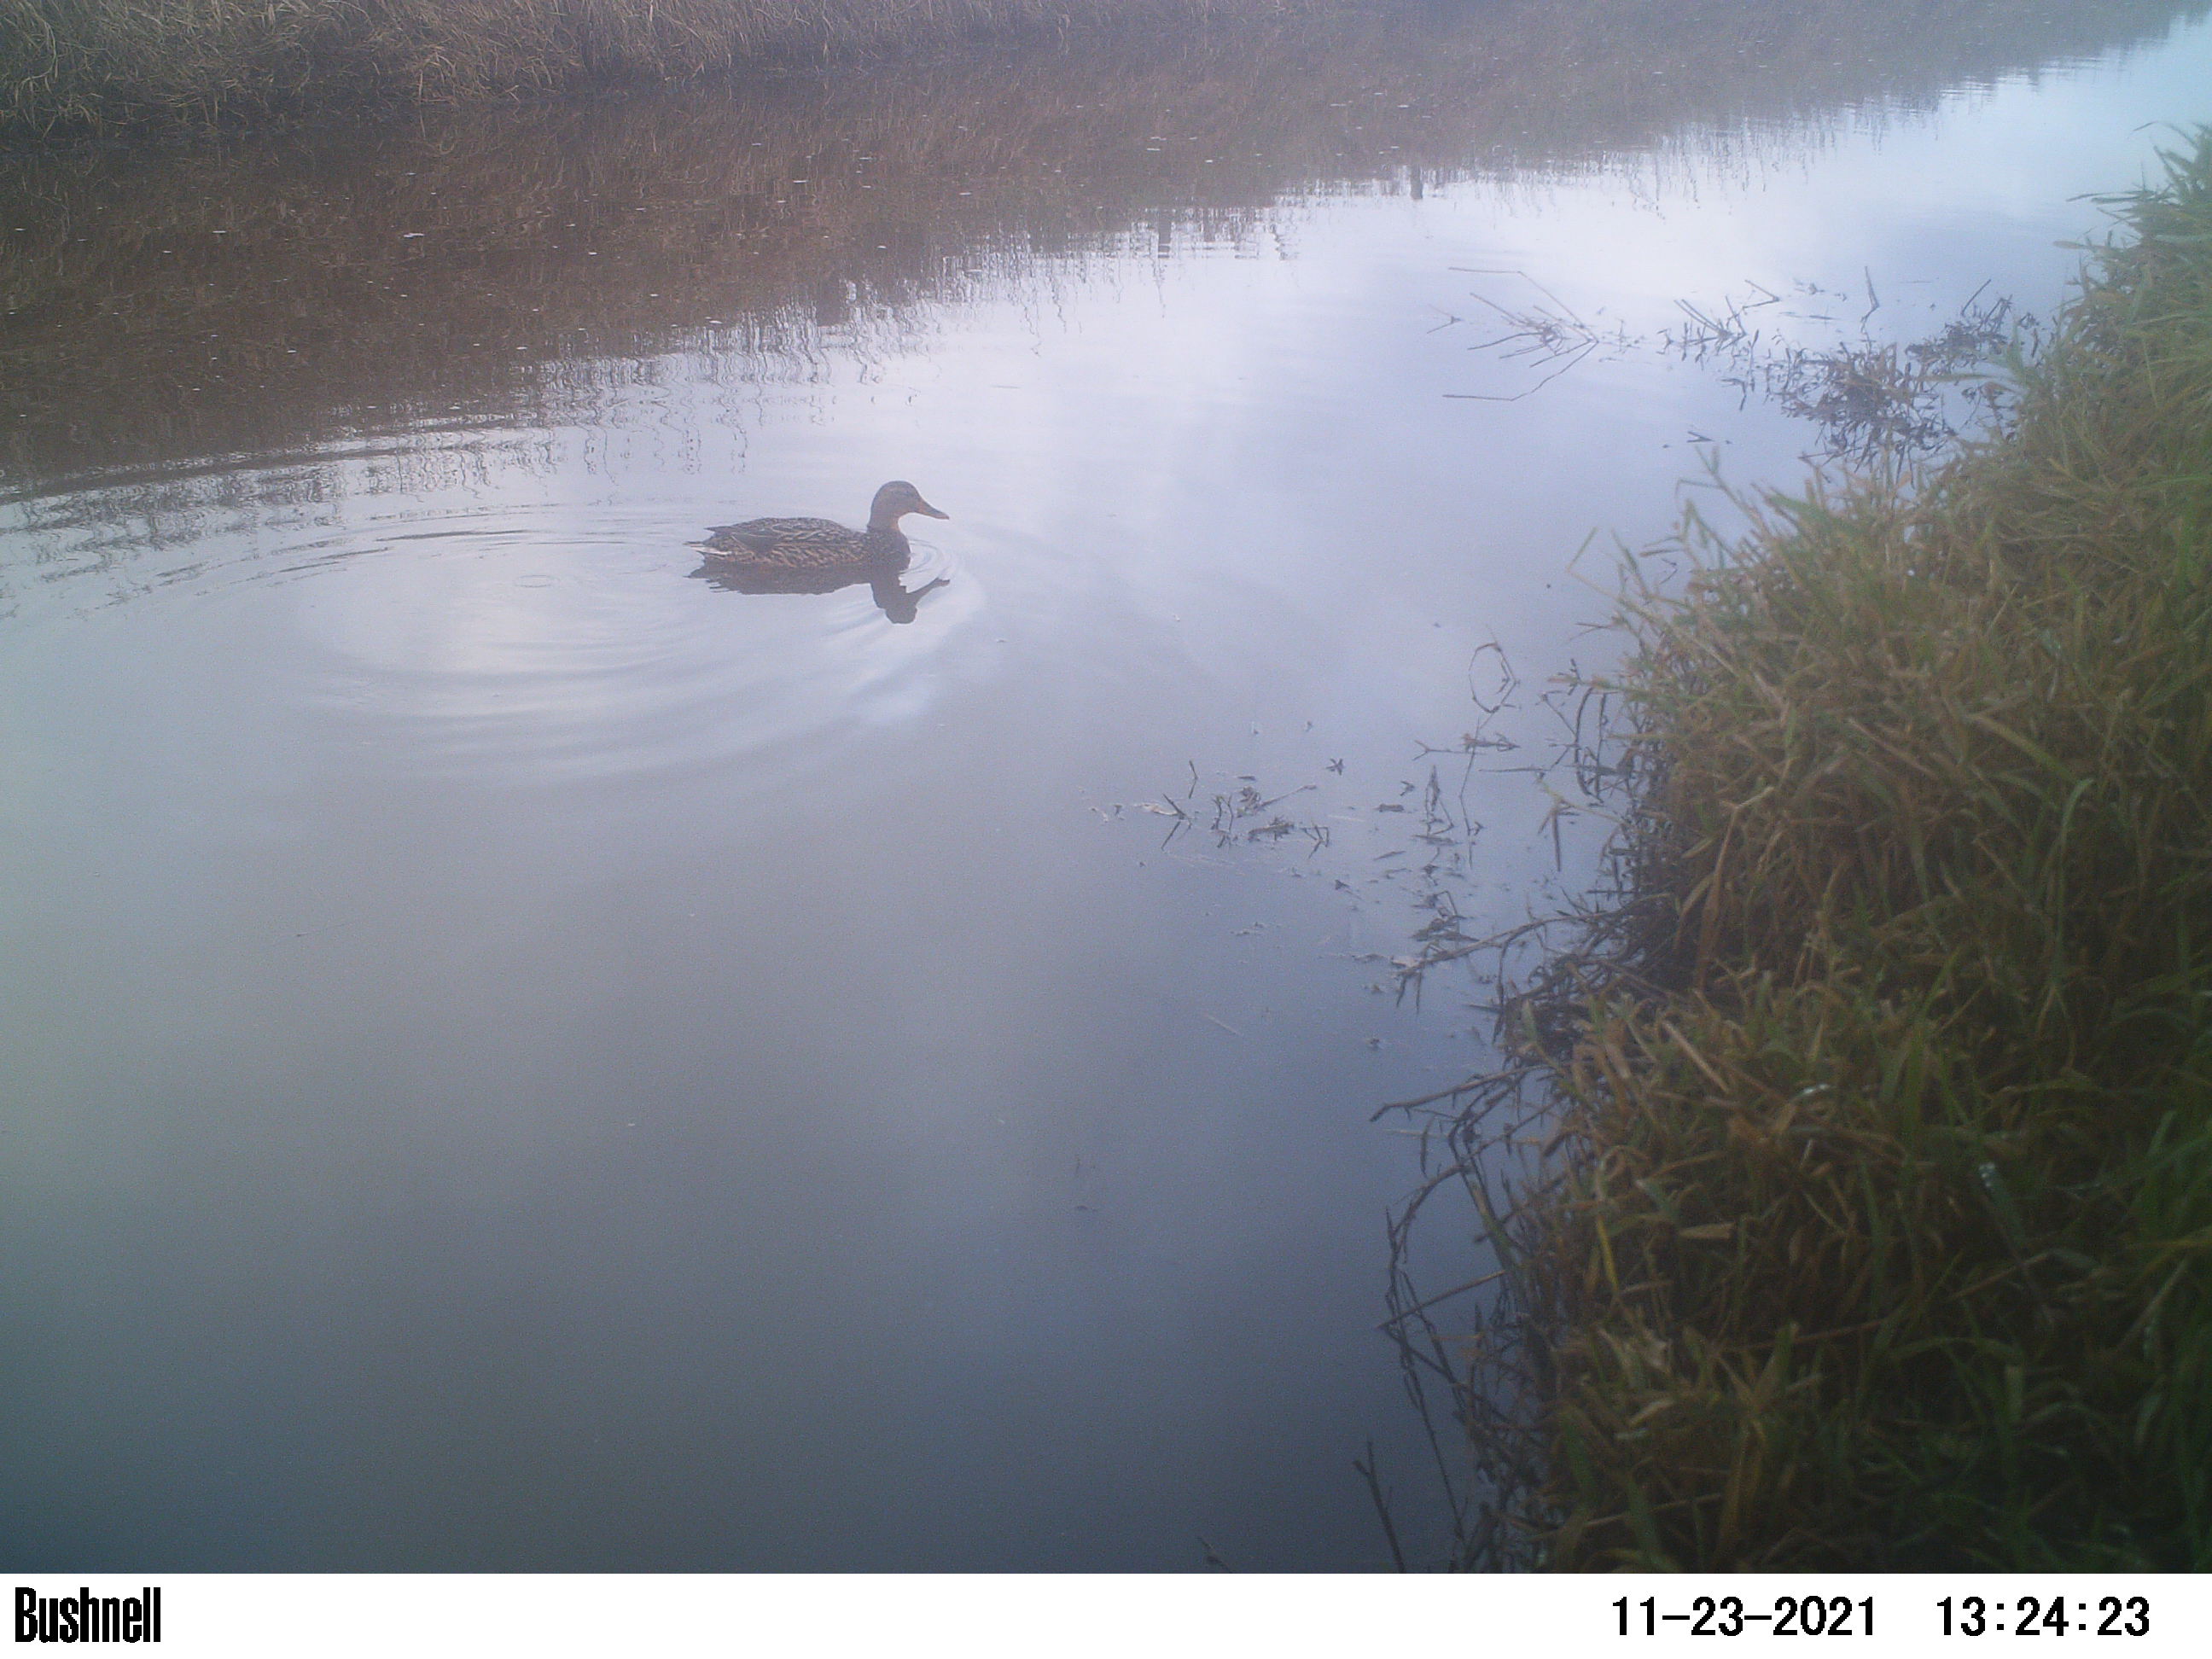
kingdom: Animalia
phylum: Chordata
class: Aves
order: Anseriformes
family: Anatidae
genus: Anas
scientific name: Anas
